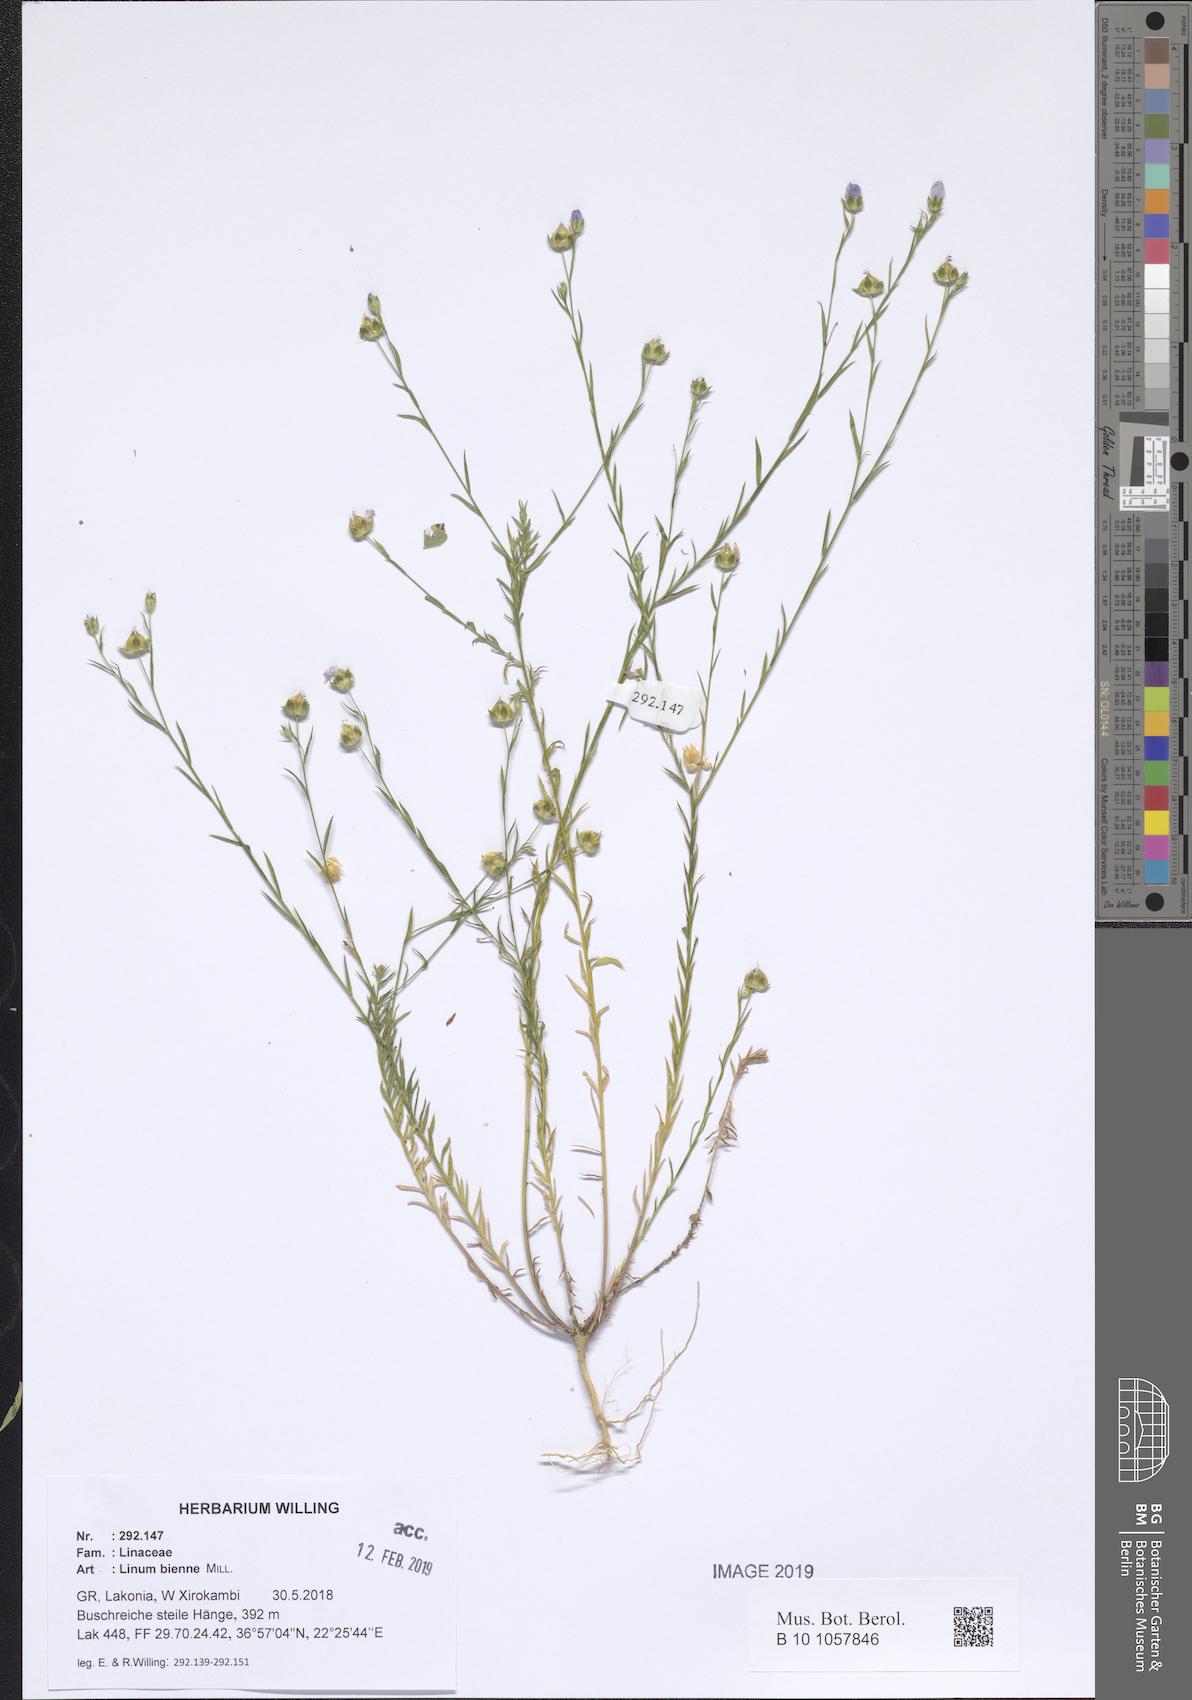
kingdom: Plantae
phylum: Tracheophyta
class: Magnoliopsida
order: Malpighiales
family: Linaceae
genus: Linum
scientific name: Linum bienne
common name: Pale flax
